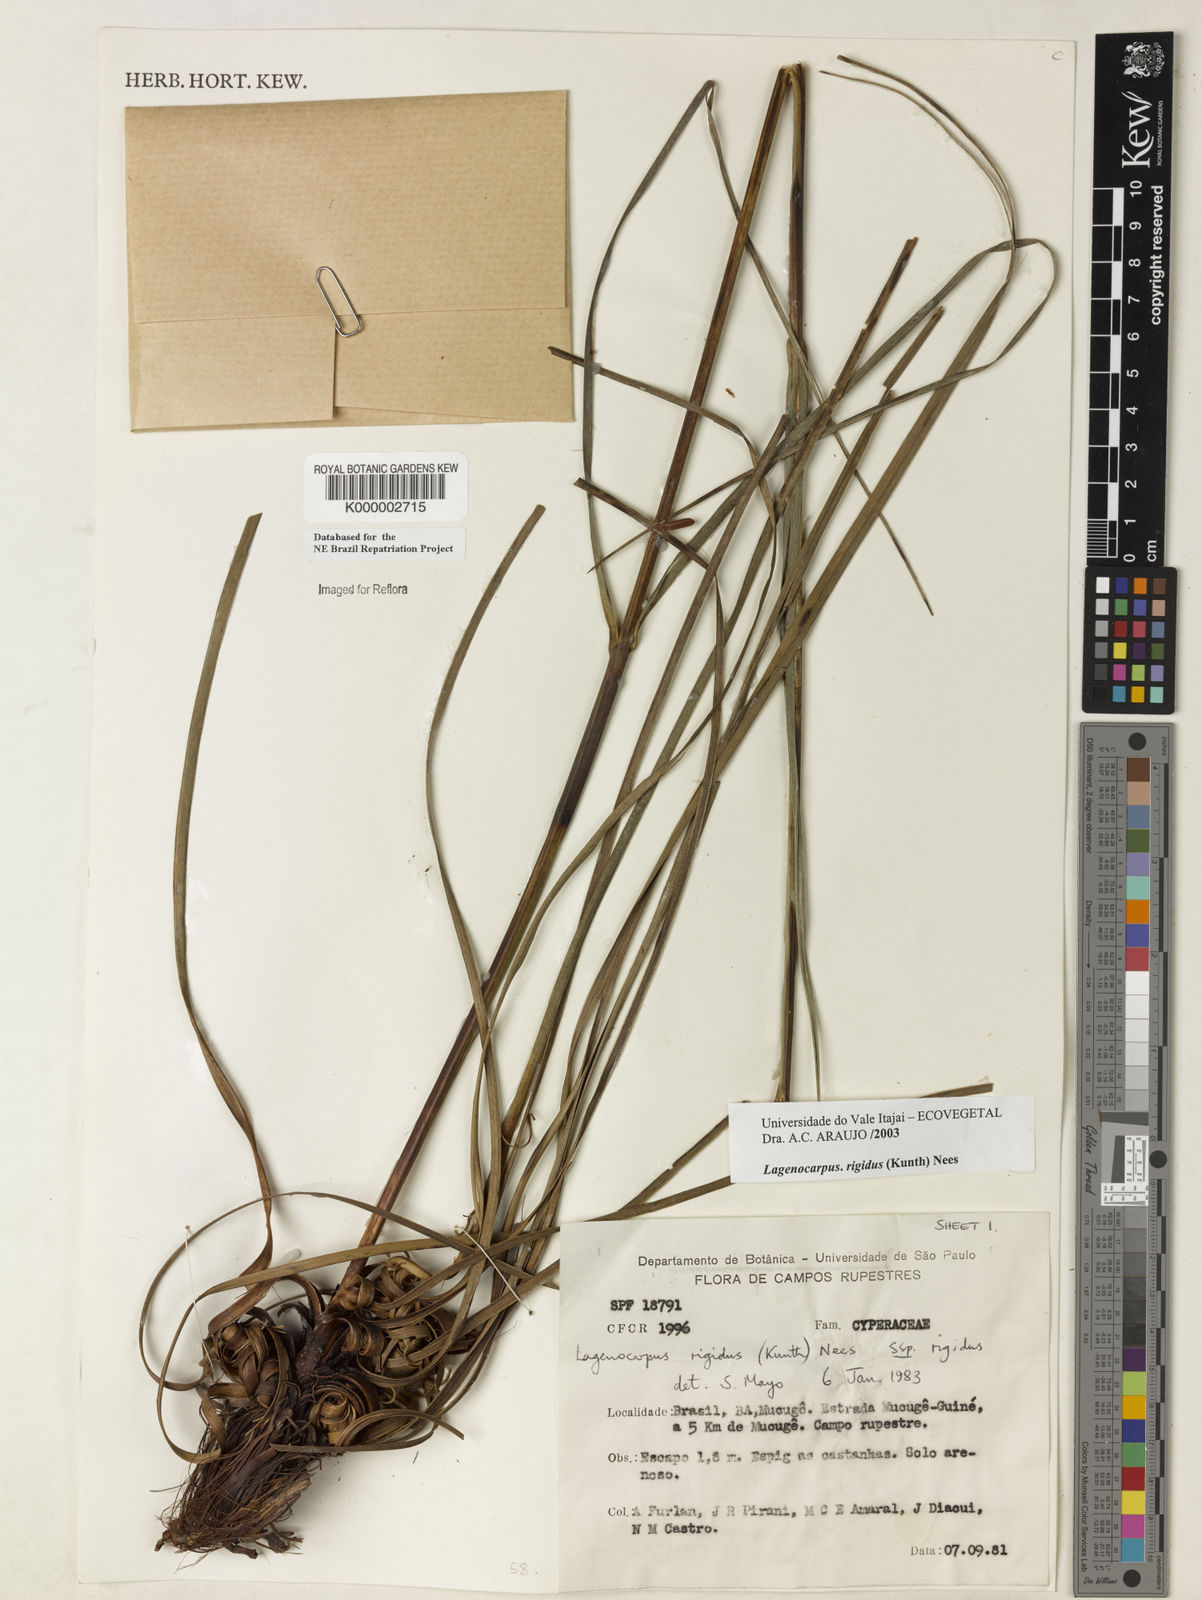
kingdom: Plantae
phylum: Tracheophyta
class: Liliopsida
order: Poales
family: Cyperaceae
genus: Lagenocarpus
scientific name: Lagenocarpus rigidus
